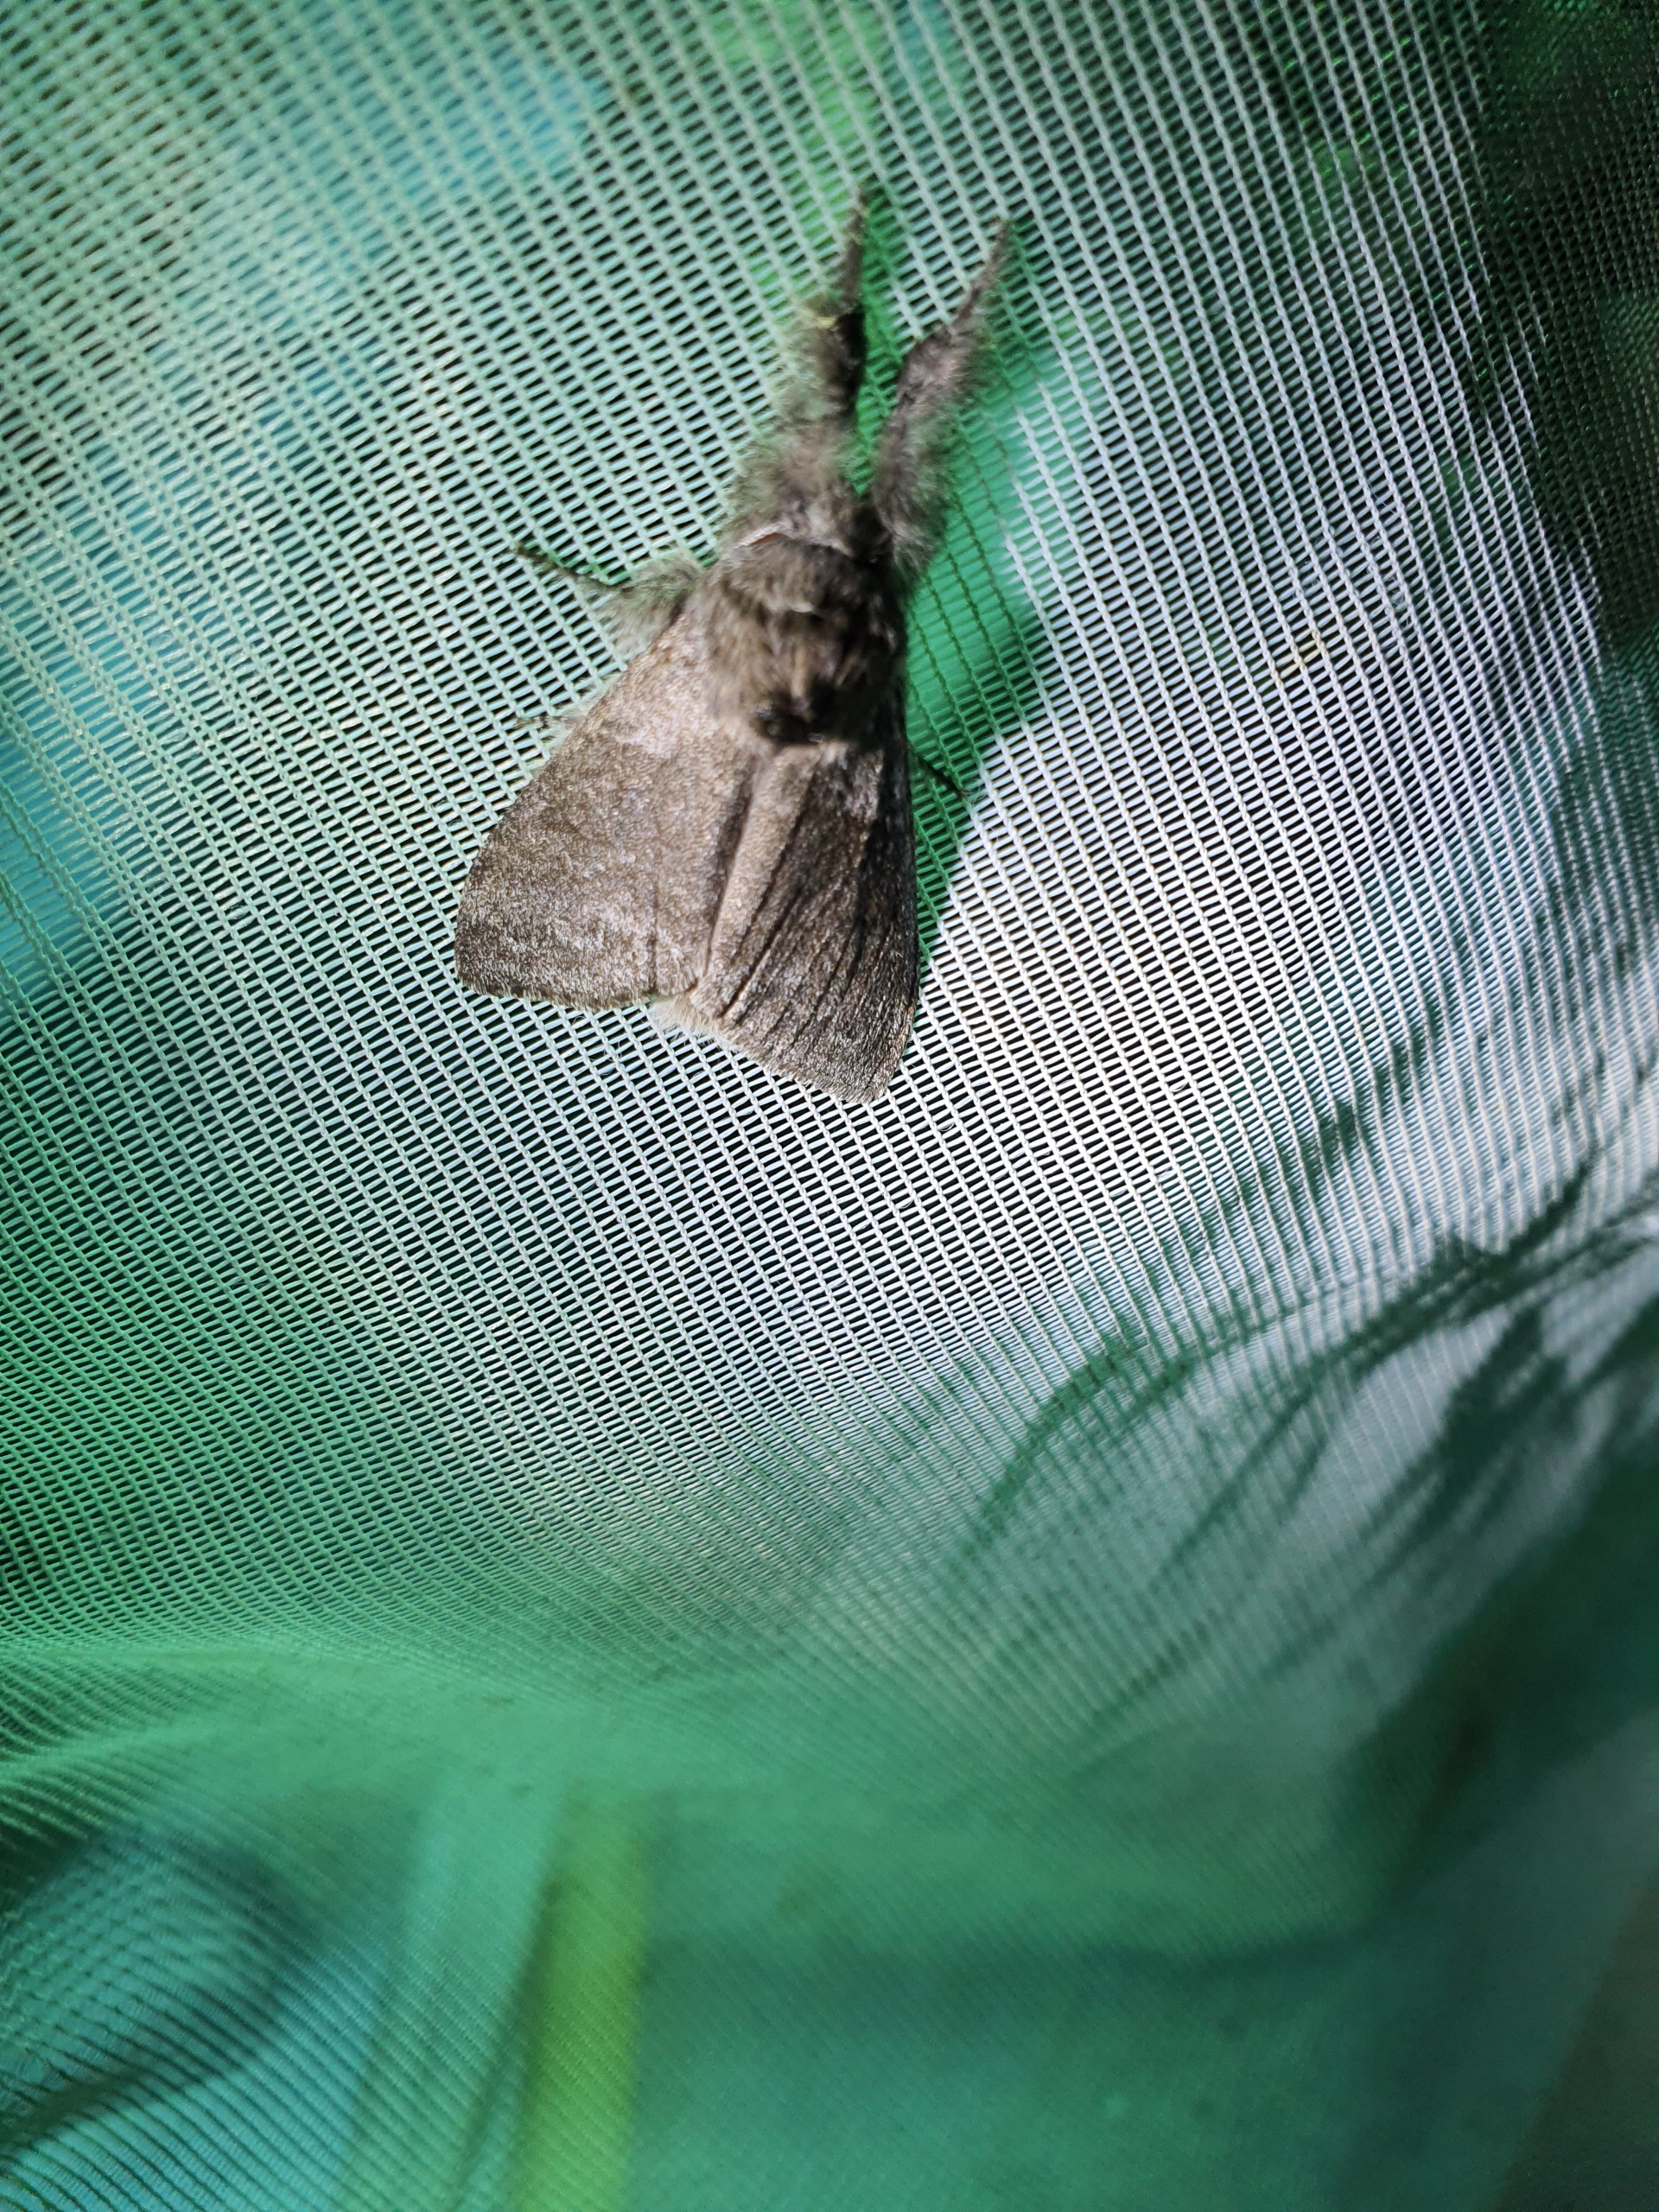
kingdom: Animalia
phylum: Arthropoda
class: Insecta
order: Lepidoptera
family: Erebidae
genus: Calliteara
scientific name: Calliteara pudibunda
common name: Bøgenonne
